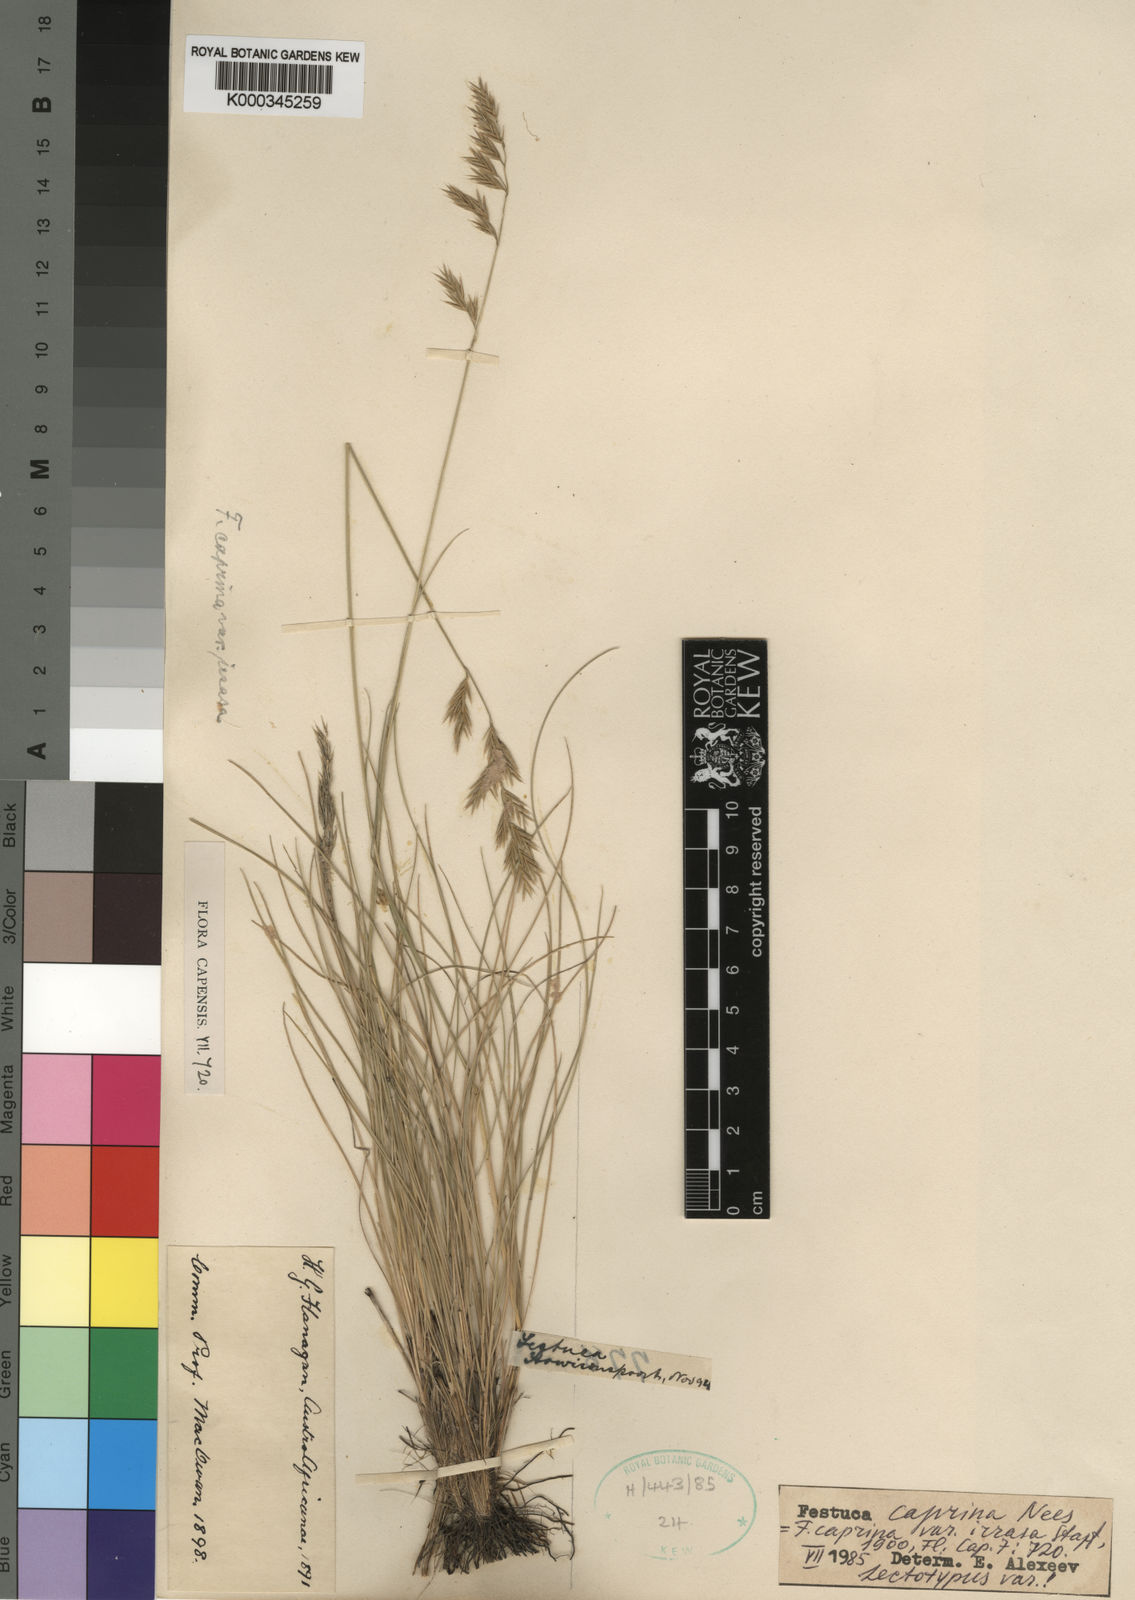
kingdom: Plantae
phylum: Tracheophyta
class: Liliopsida
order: Poales
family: Poaceae
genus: Festuca
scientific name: Festuca caprina
